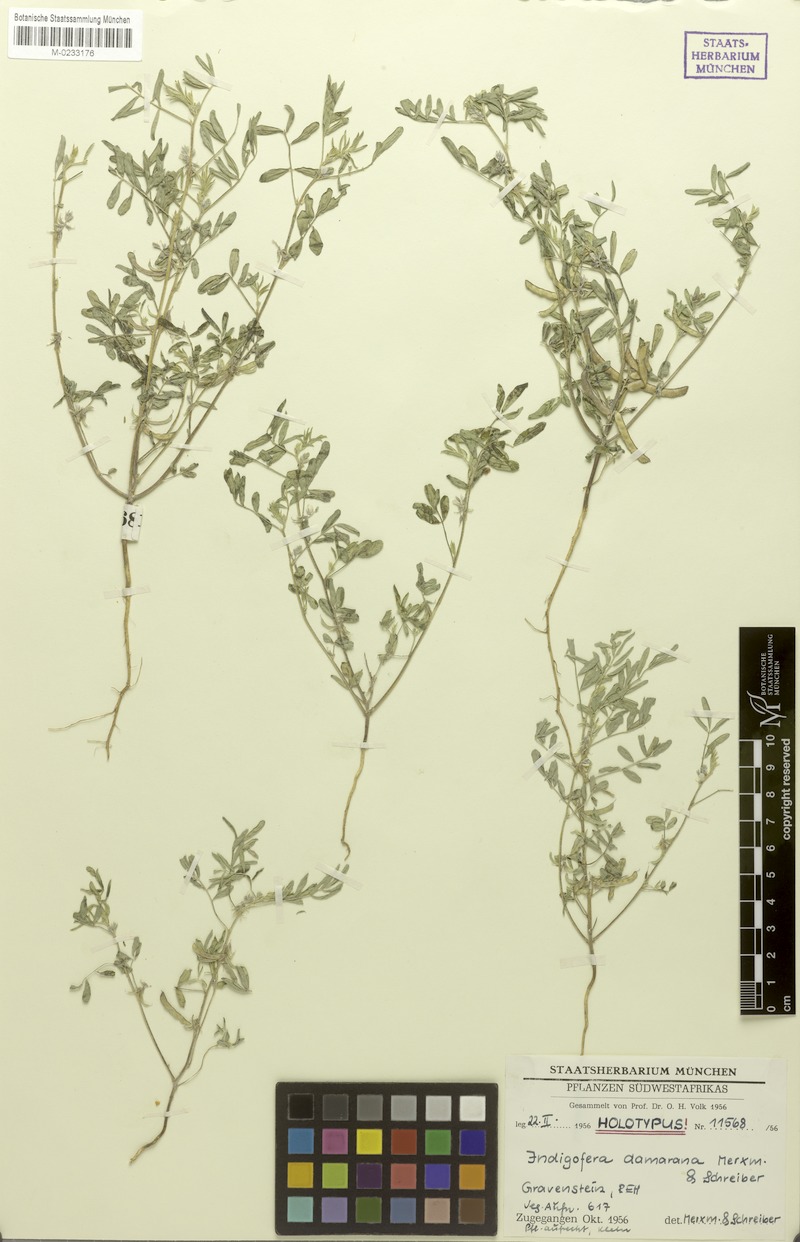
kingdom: Plantae
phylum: Tracheophyta
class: Magnoliopsida
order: Fabales
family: Fabaceae
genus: Indigofera
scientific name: Indigofera damarana
